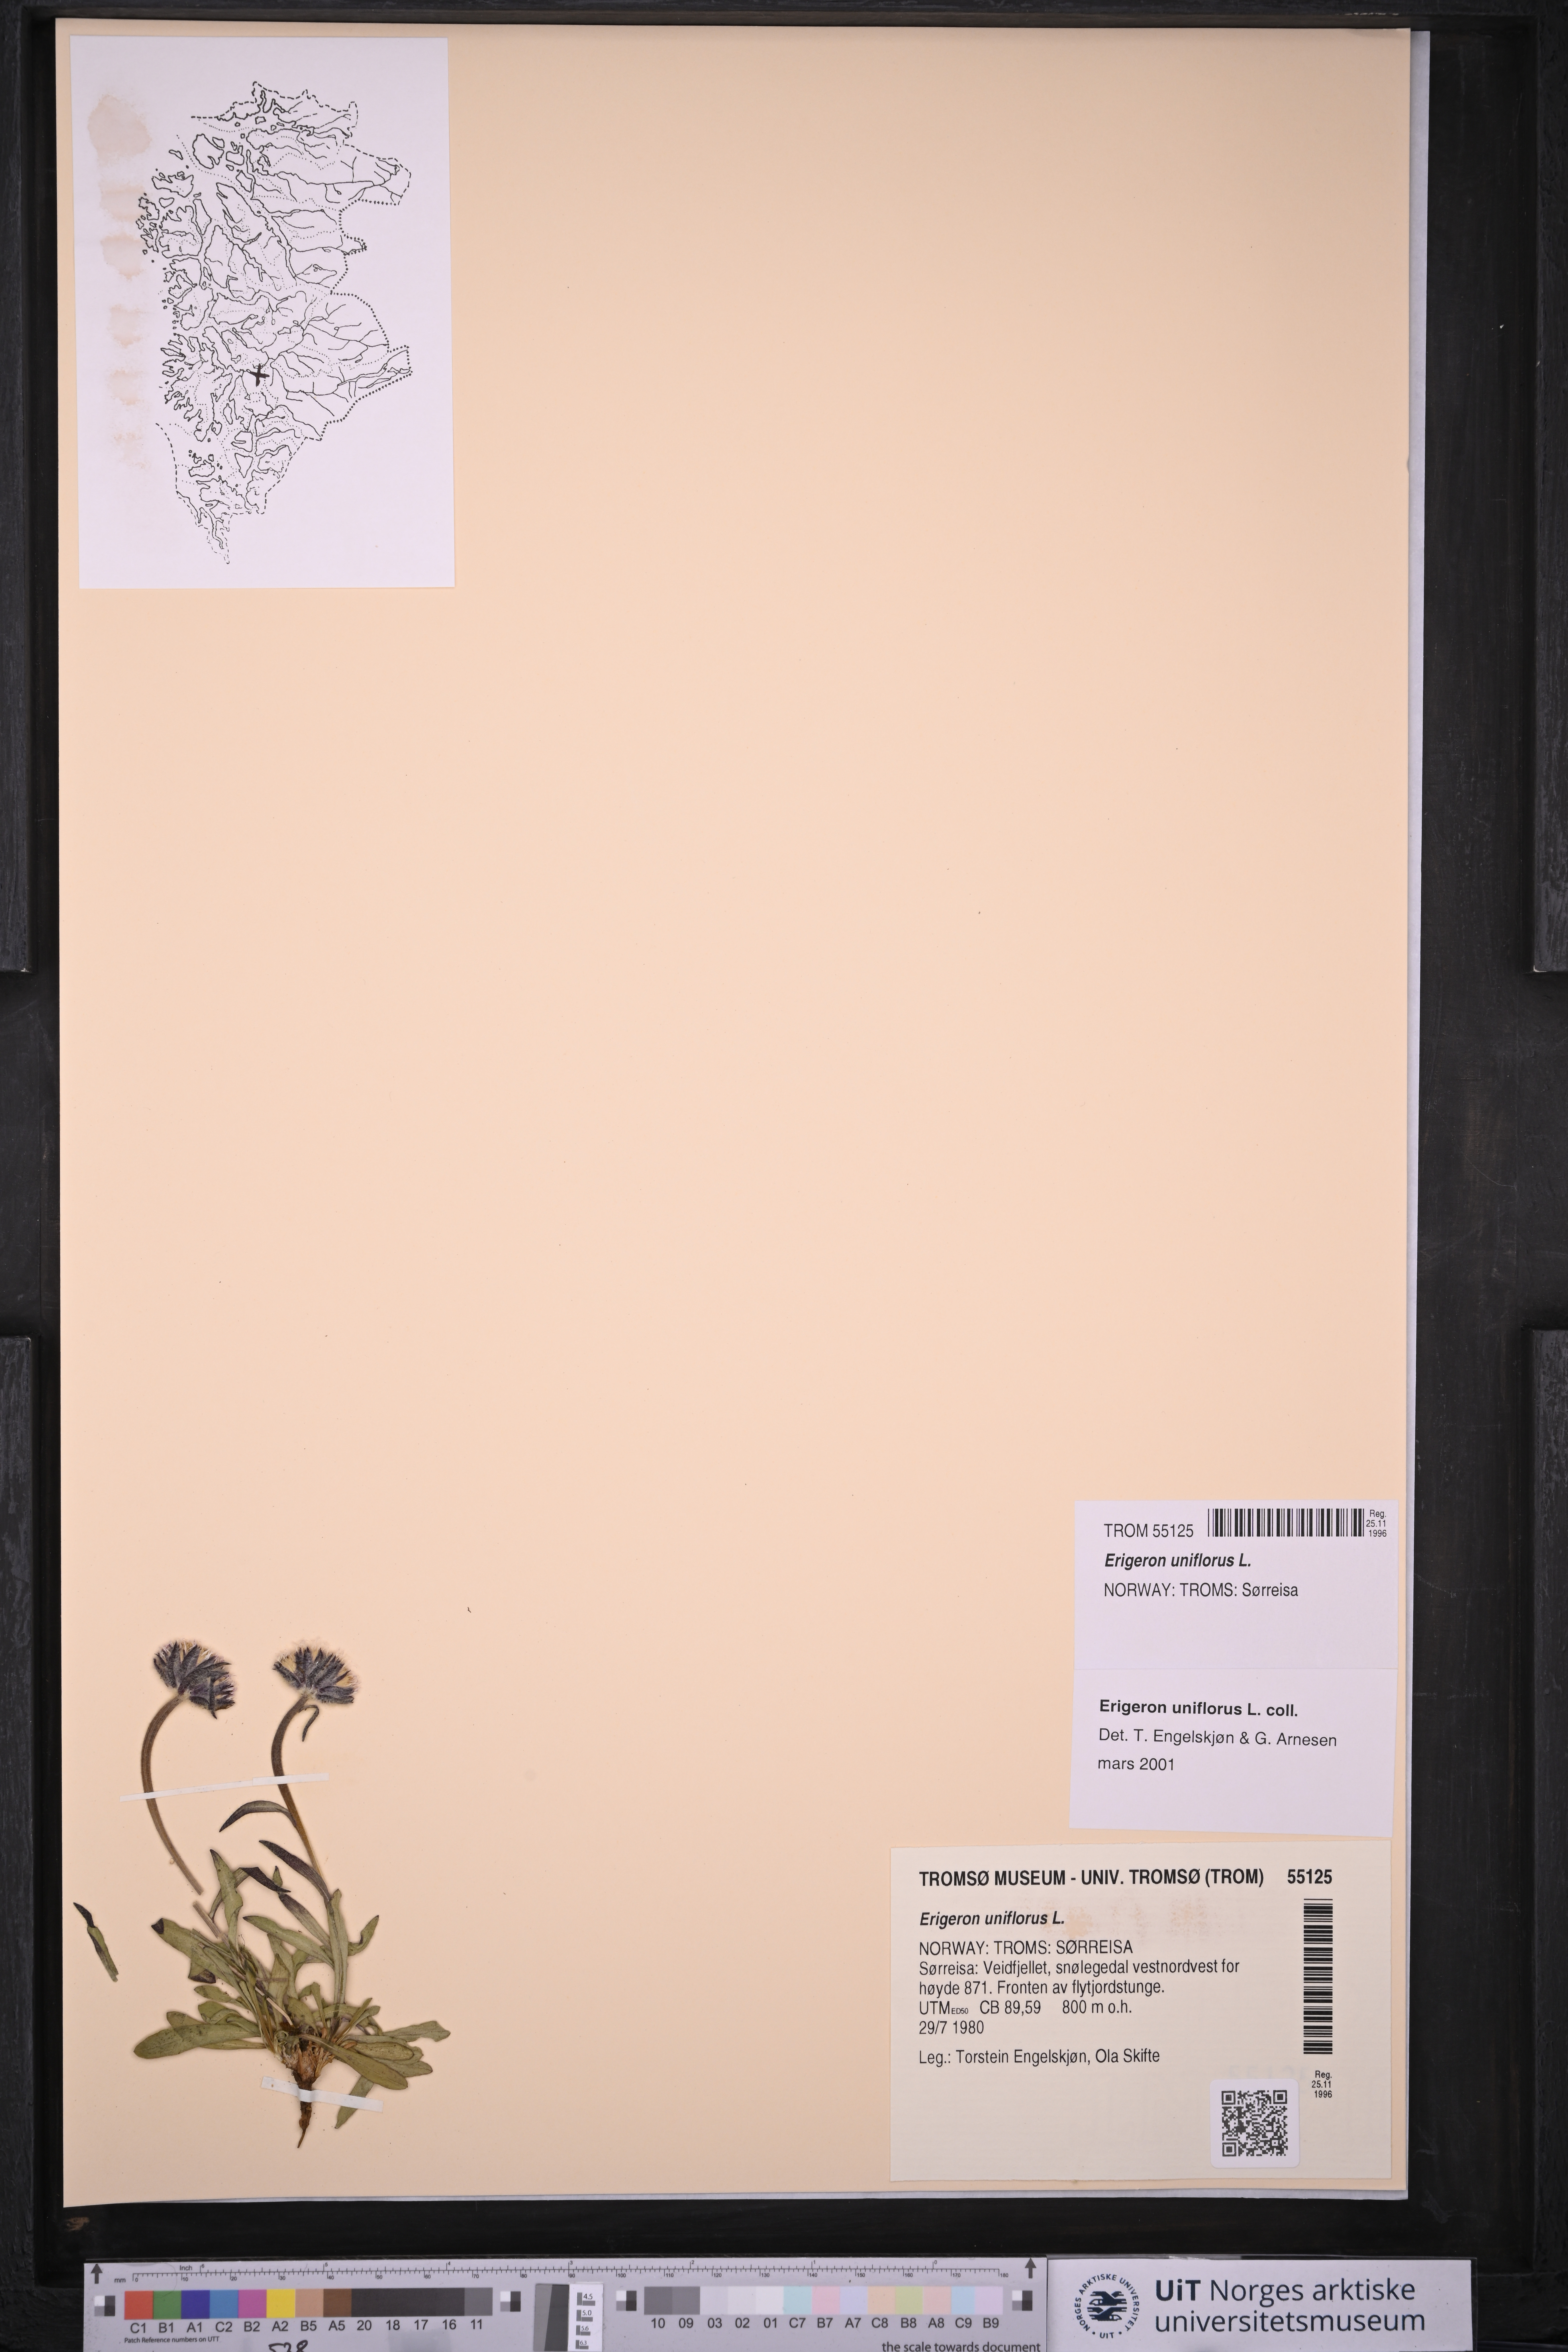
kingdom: Plantae
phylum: Tracheophyta
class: Magnoliopsida
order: Asterales
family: Asteraceae
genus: Erigeron
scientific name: Erigeron uniflorus
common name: Northern daisy
